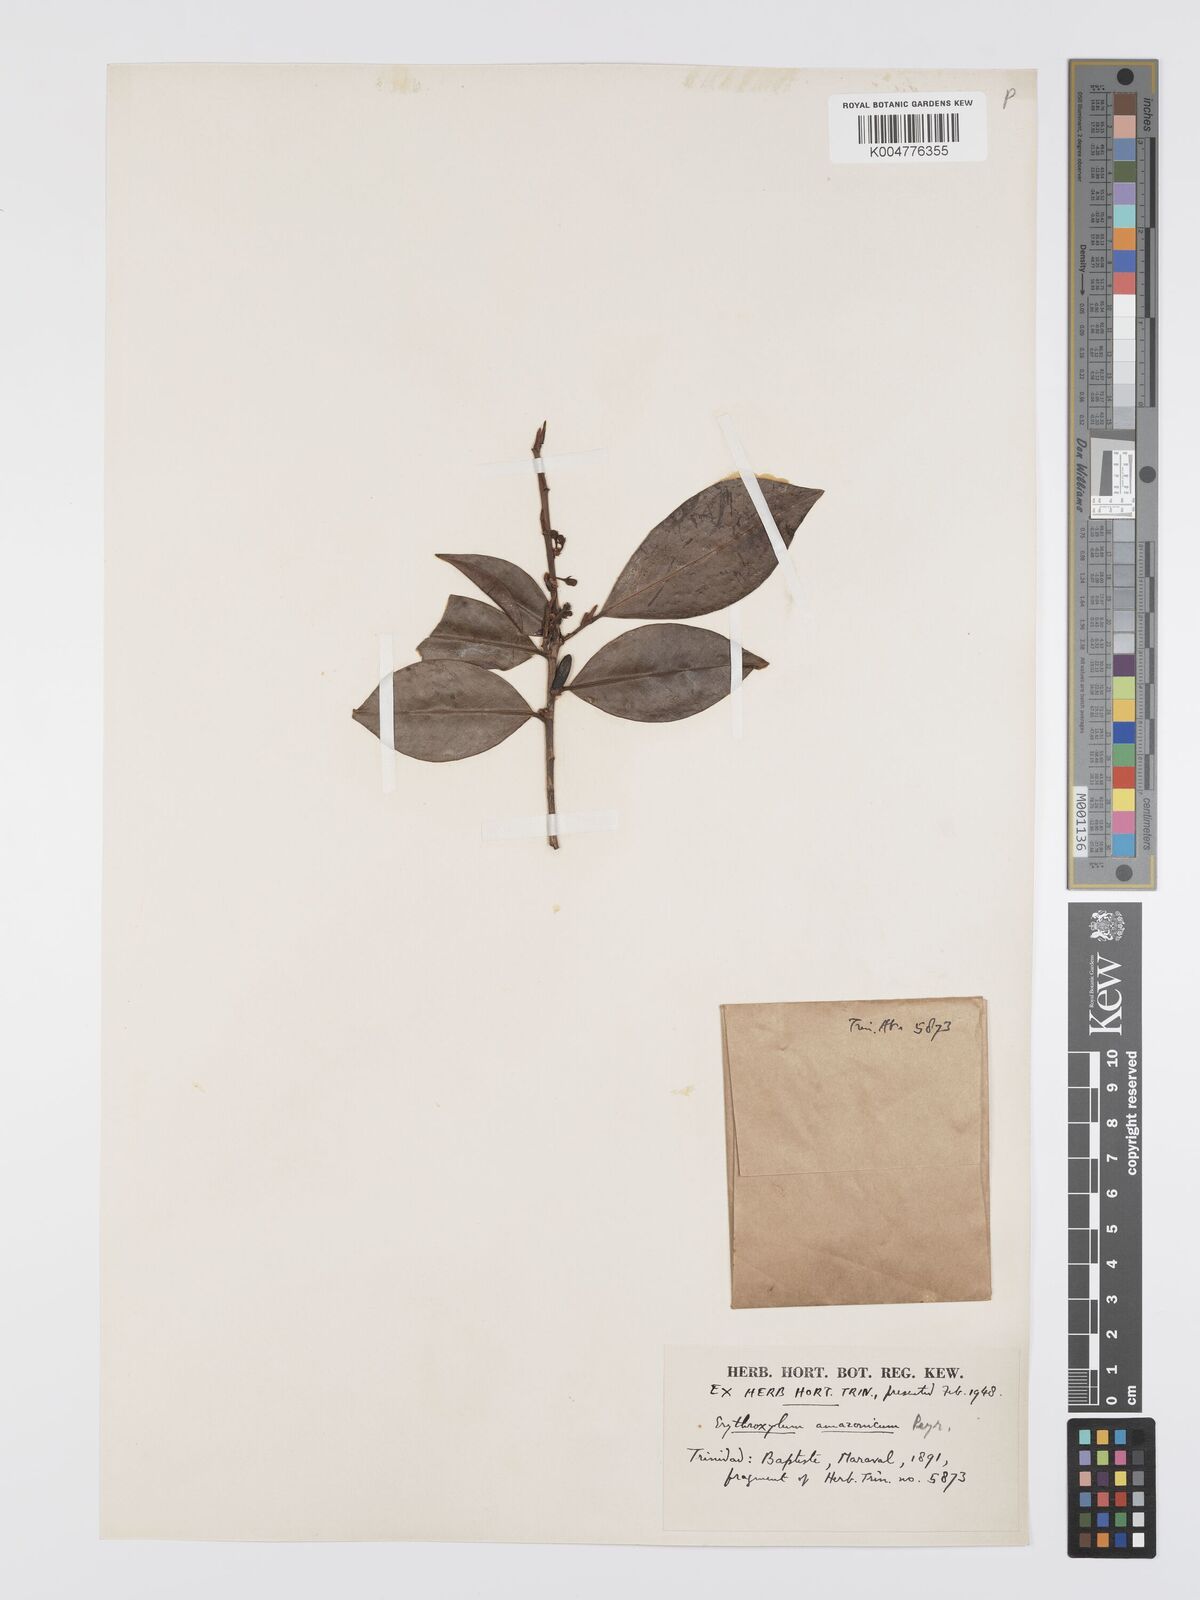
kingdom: Plantae
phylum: Tracheophyta
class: Magnoliopsida
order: Malpighiales
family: Erythroxylaceae
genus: Erythroxylum
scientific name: Erythroxylum amazonicum
